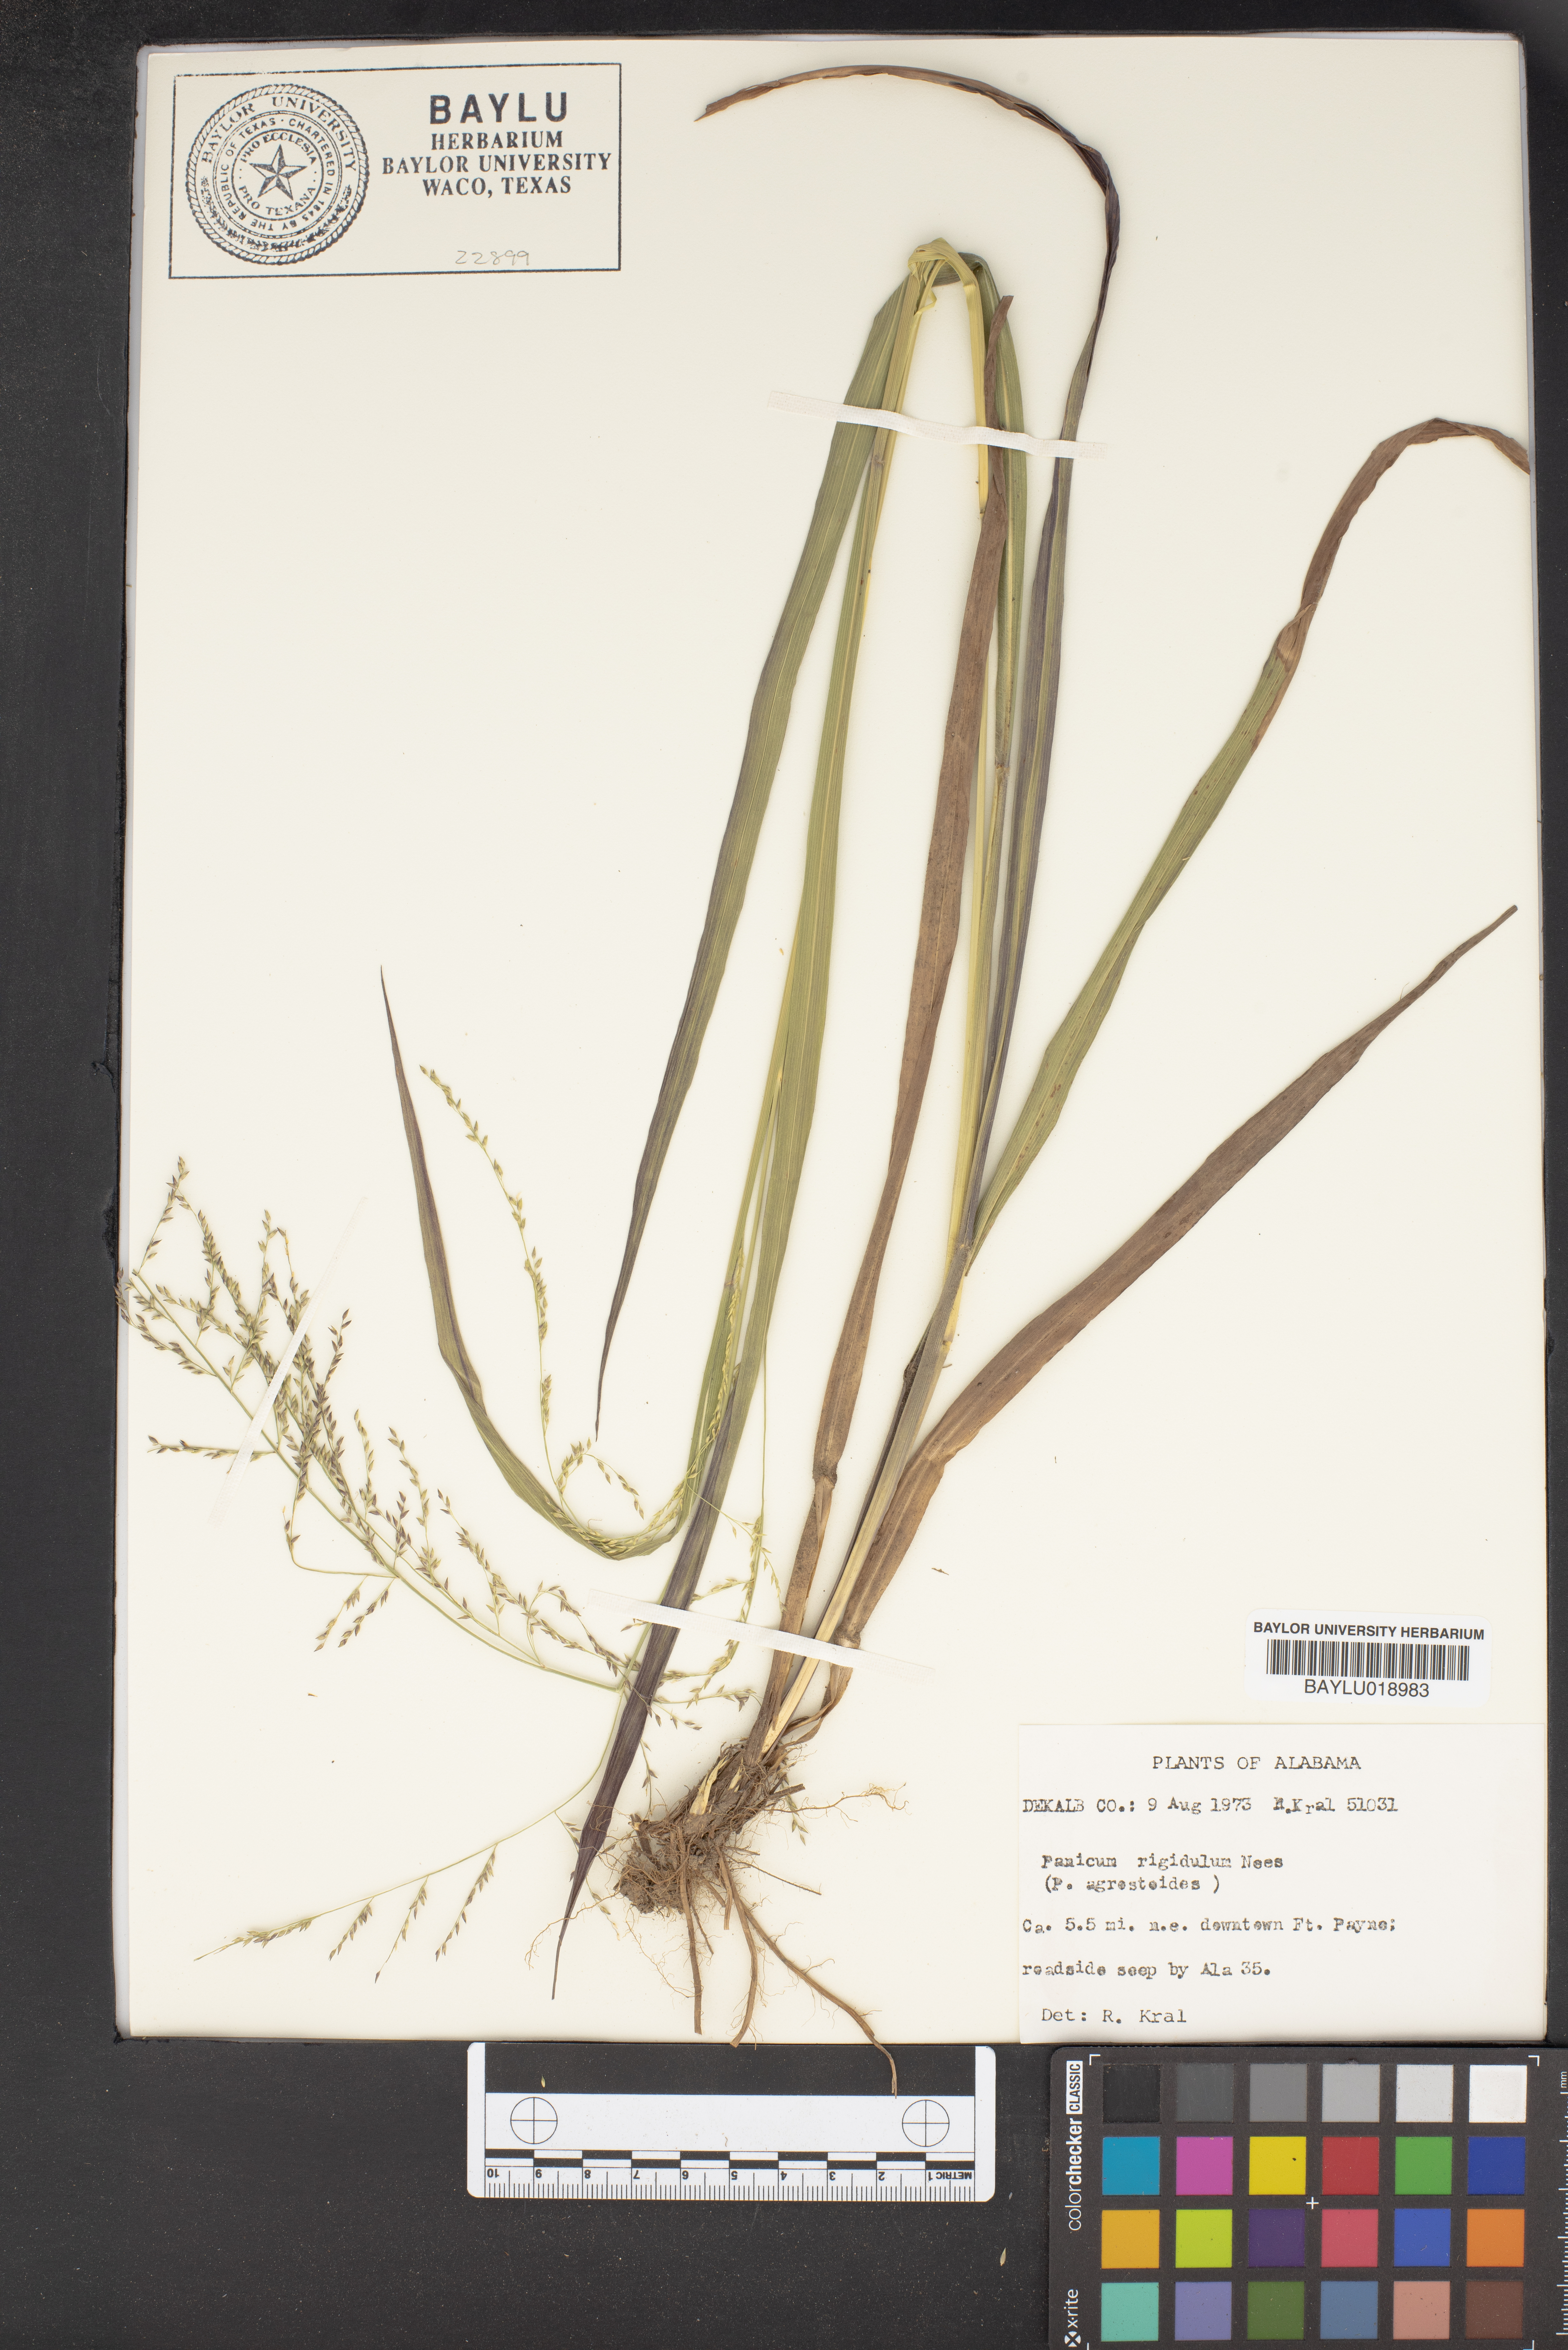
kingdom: Plantae
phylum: Tracheophyta
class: Liliopsida
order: Poales
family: Poaceae
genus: Coleataenia
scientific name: Coleataenia rigidula
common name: Redtop panicgrass
